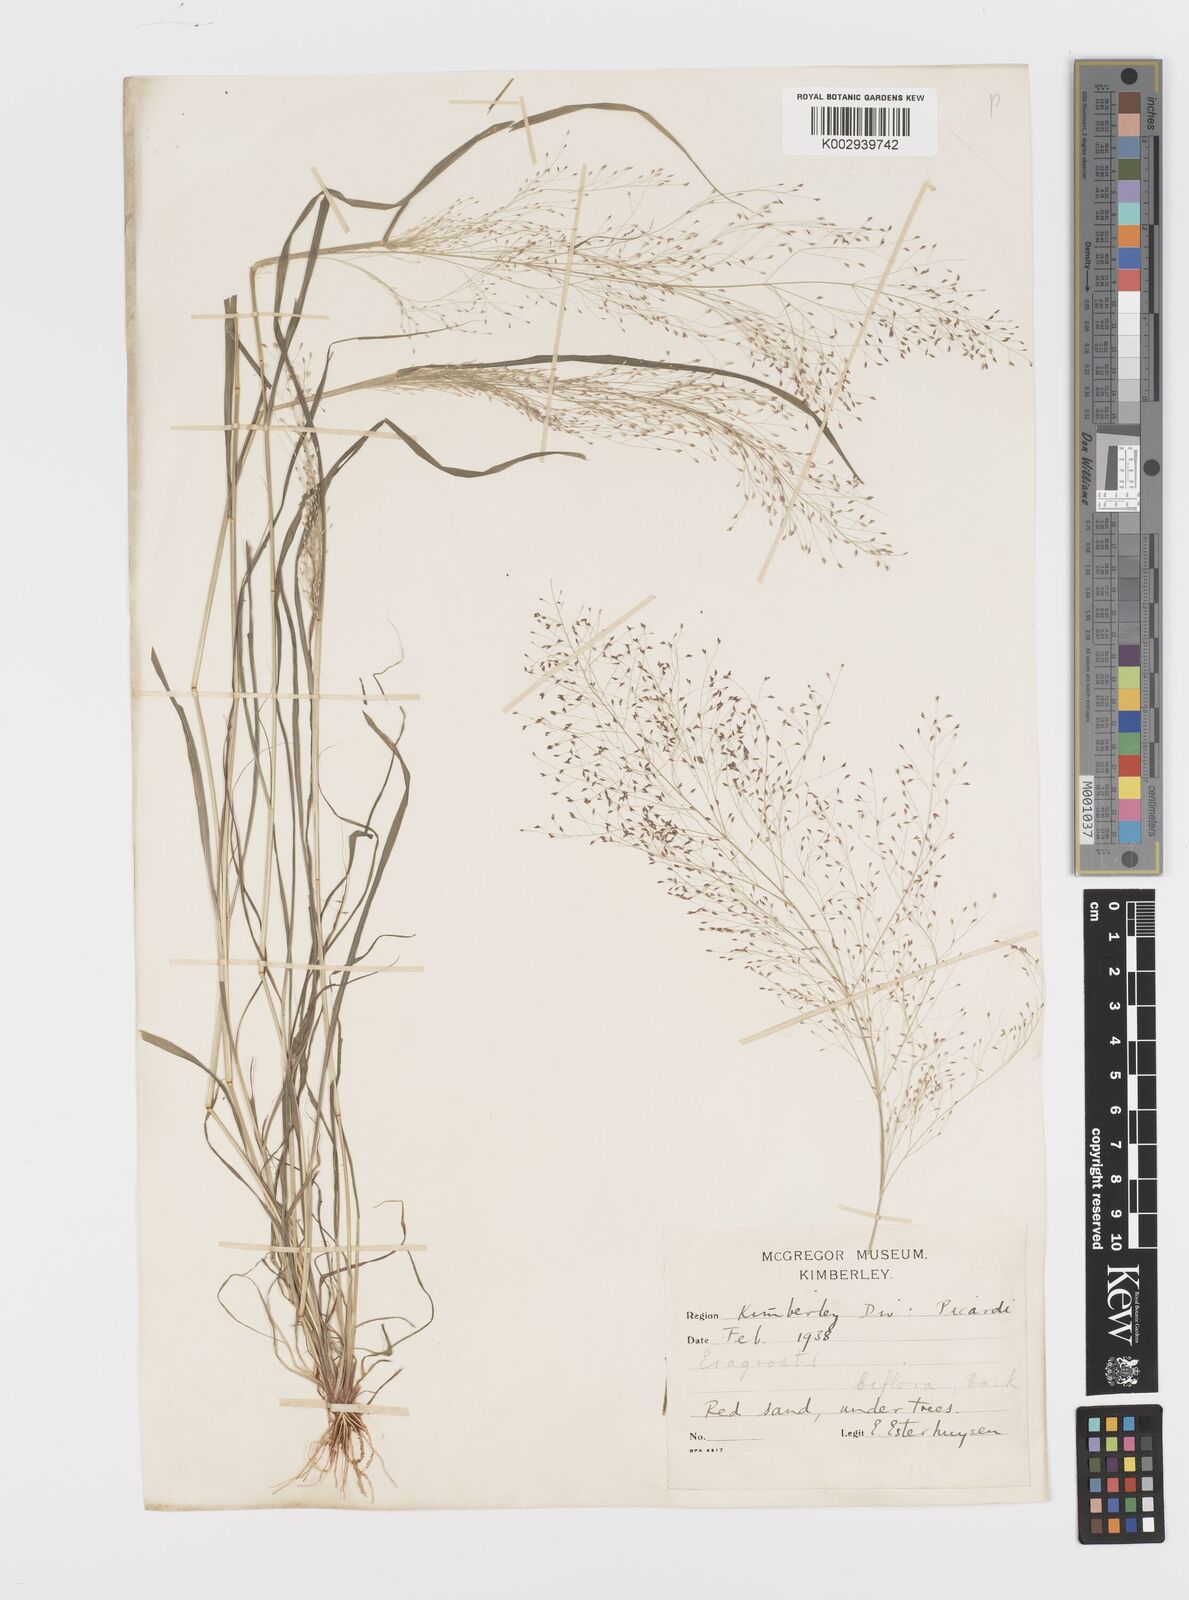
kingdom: Plantae
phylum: Tracheophyta
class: Liliopsida
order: Poales
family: Poaceae
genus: Eragrostis
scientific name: Eragrostis biflora
